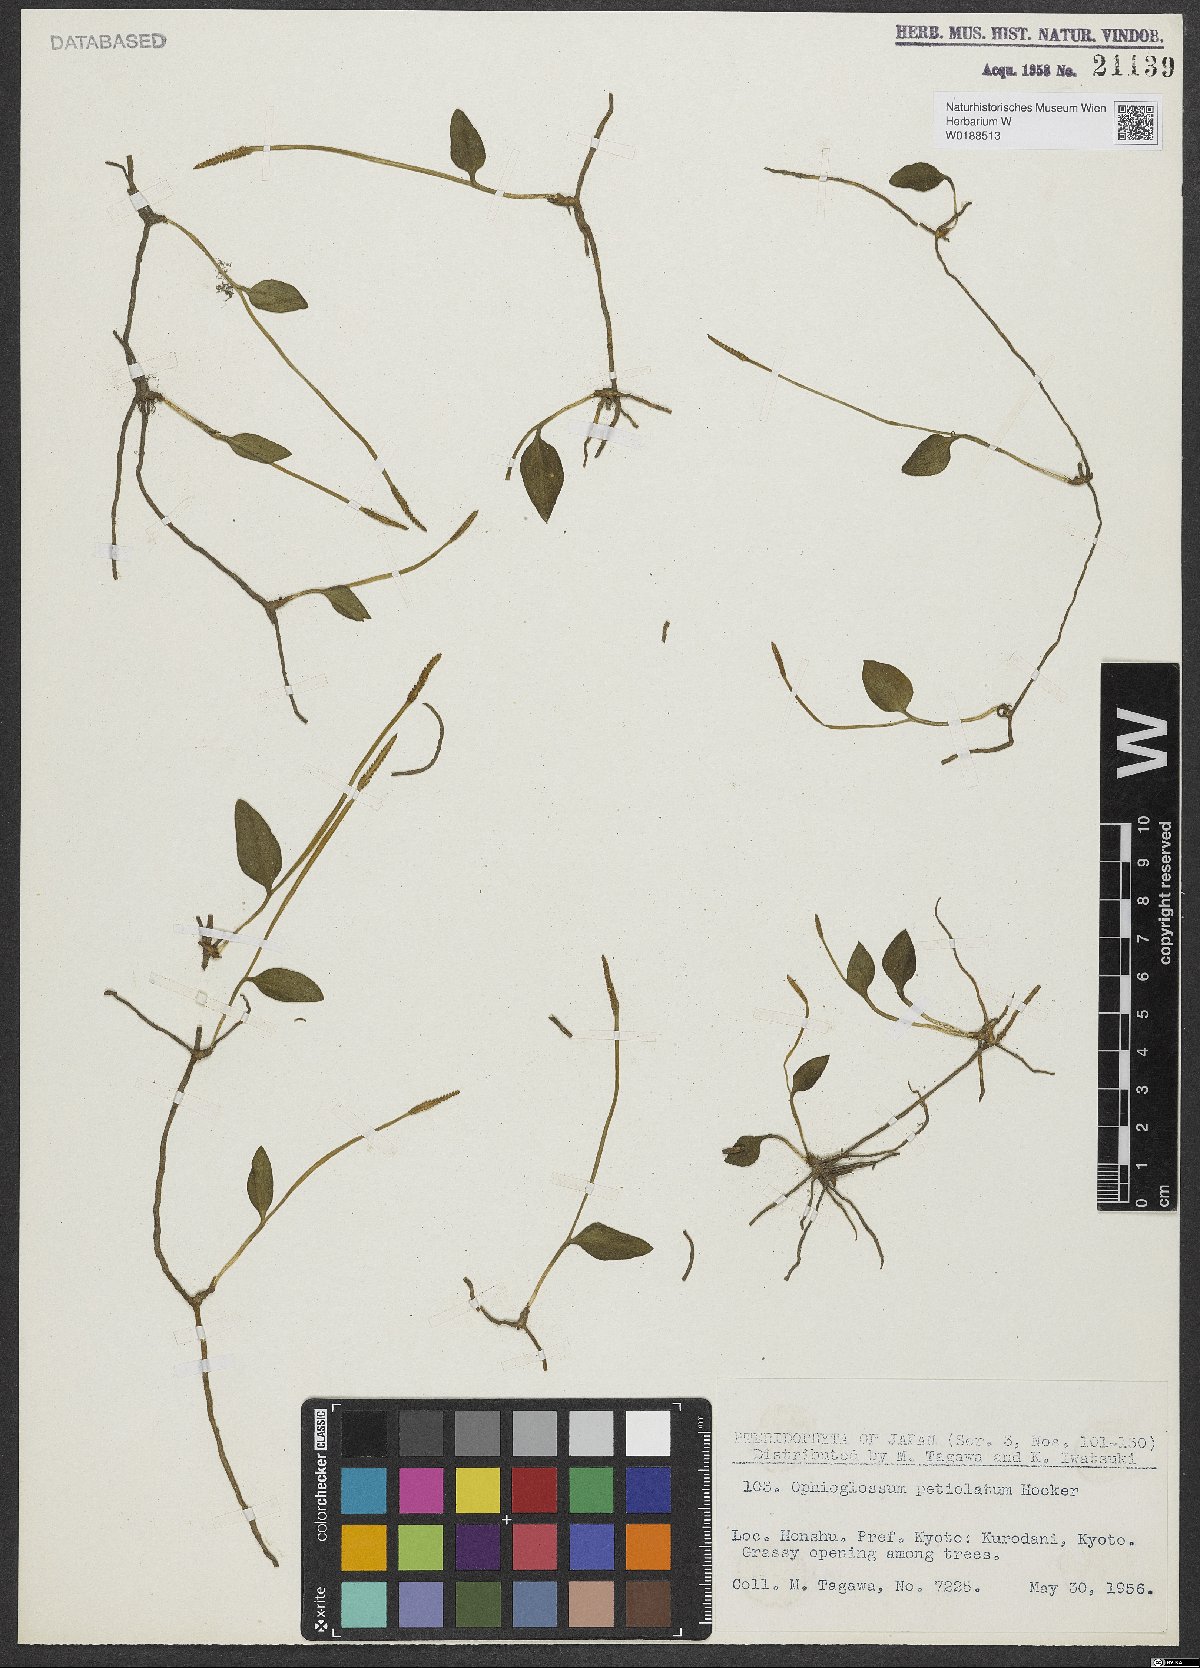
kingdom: Plantae
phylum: Tracheophyta
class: Polypodiopsida
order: Ophioglossales
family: Ophioglossaceae
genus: Ophioglossum
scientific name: Ophioglossum petiolatum
